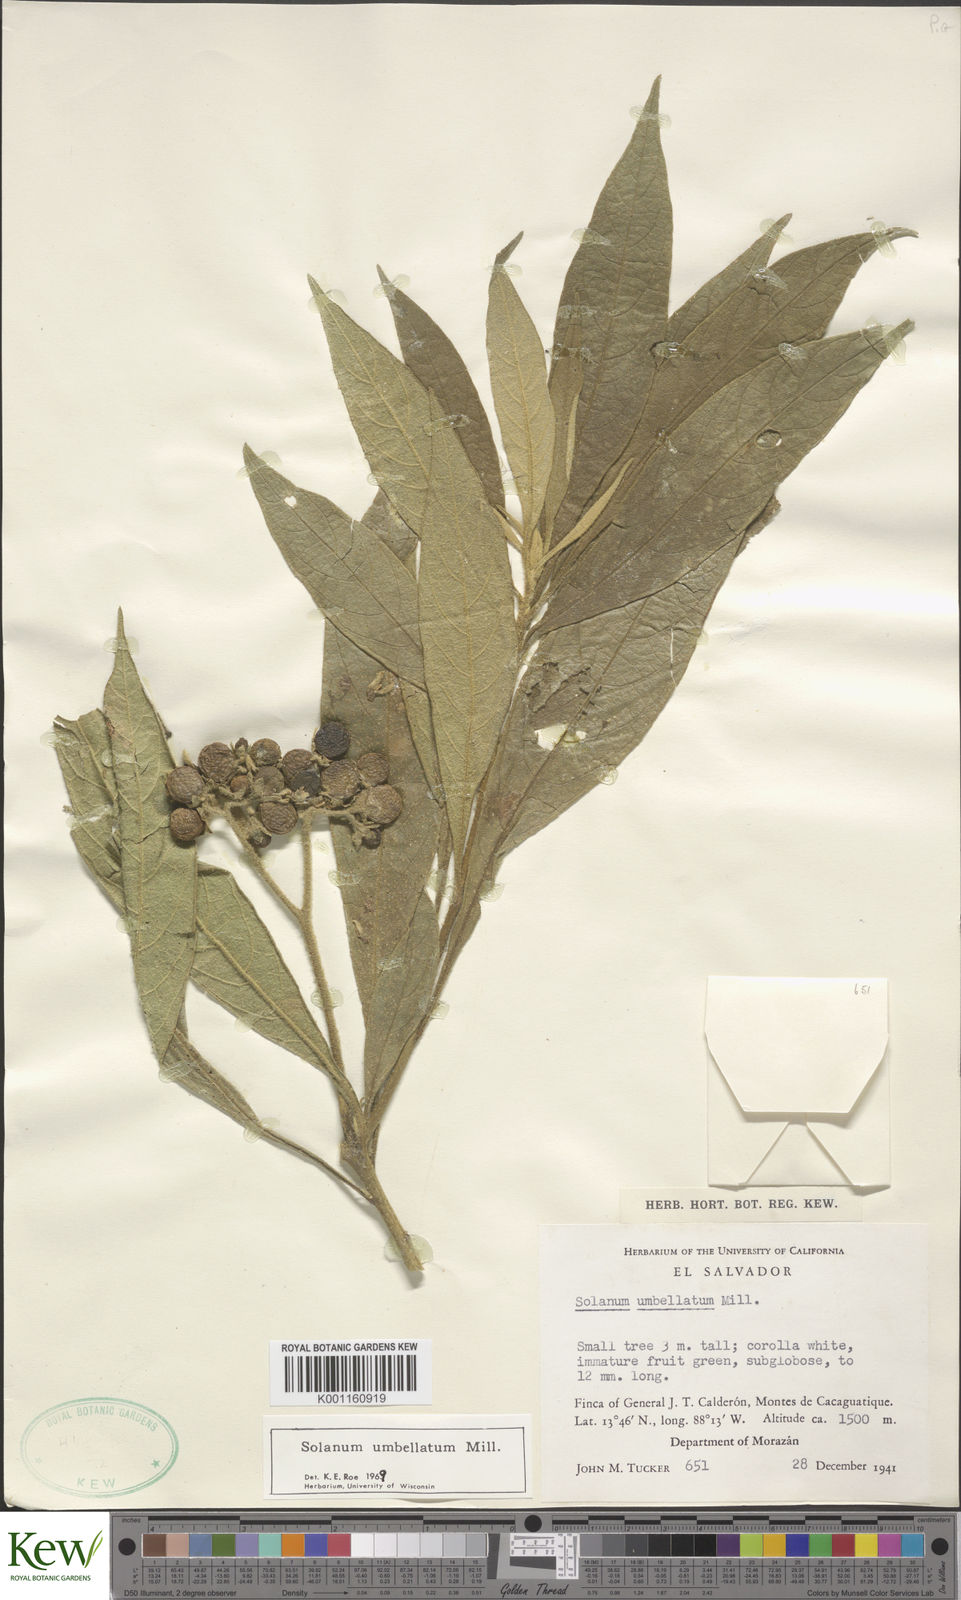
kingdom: Plantae
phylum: Tracheophyta
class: Magnoliopsida
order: Solanales
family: Solanaceae
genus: Solanum
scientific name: Solanum umbellatum
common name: Nightshade
